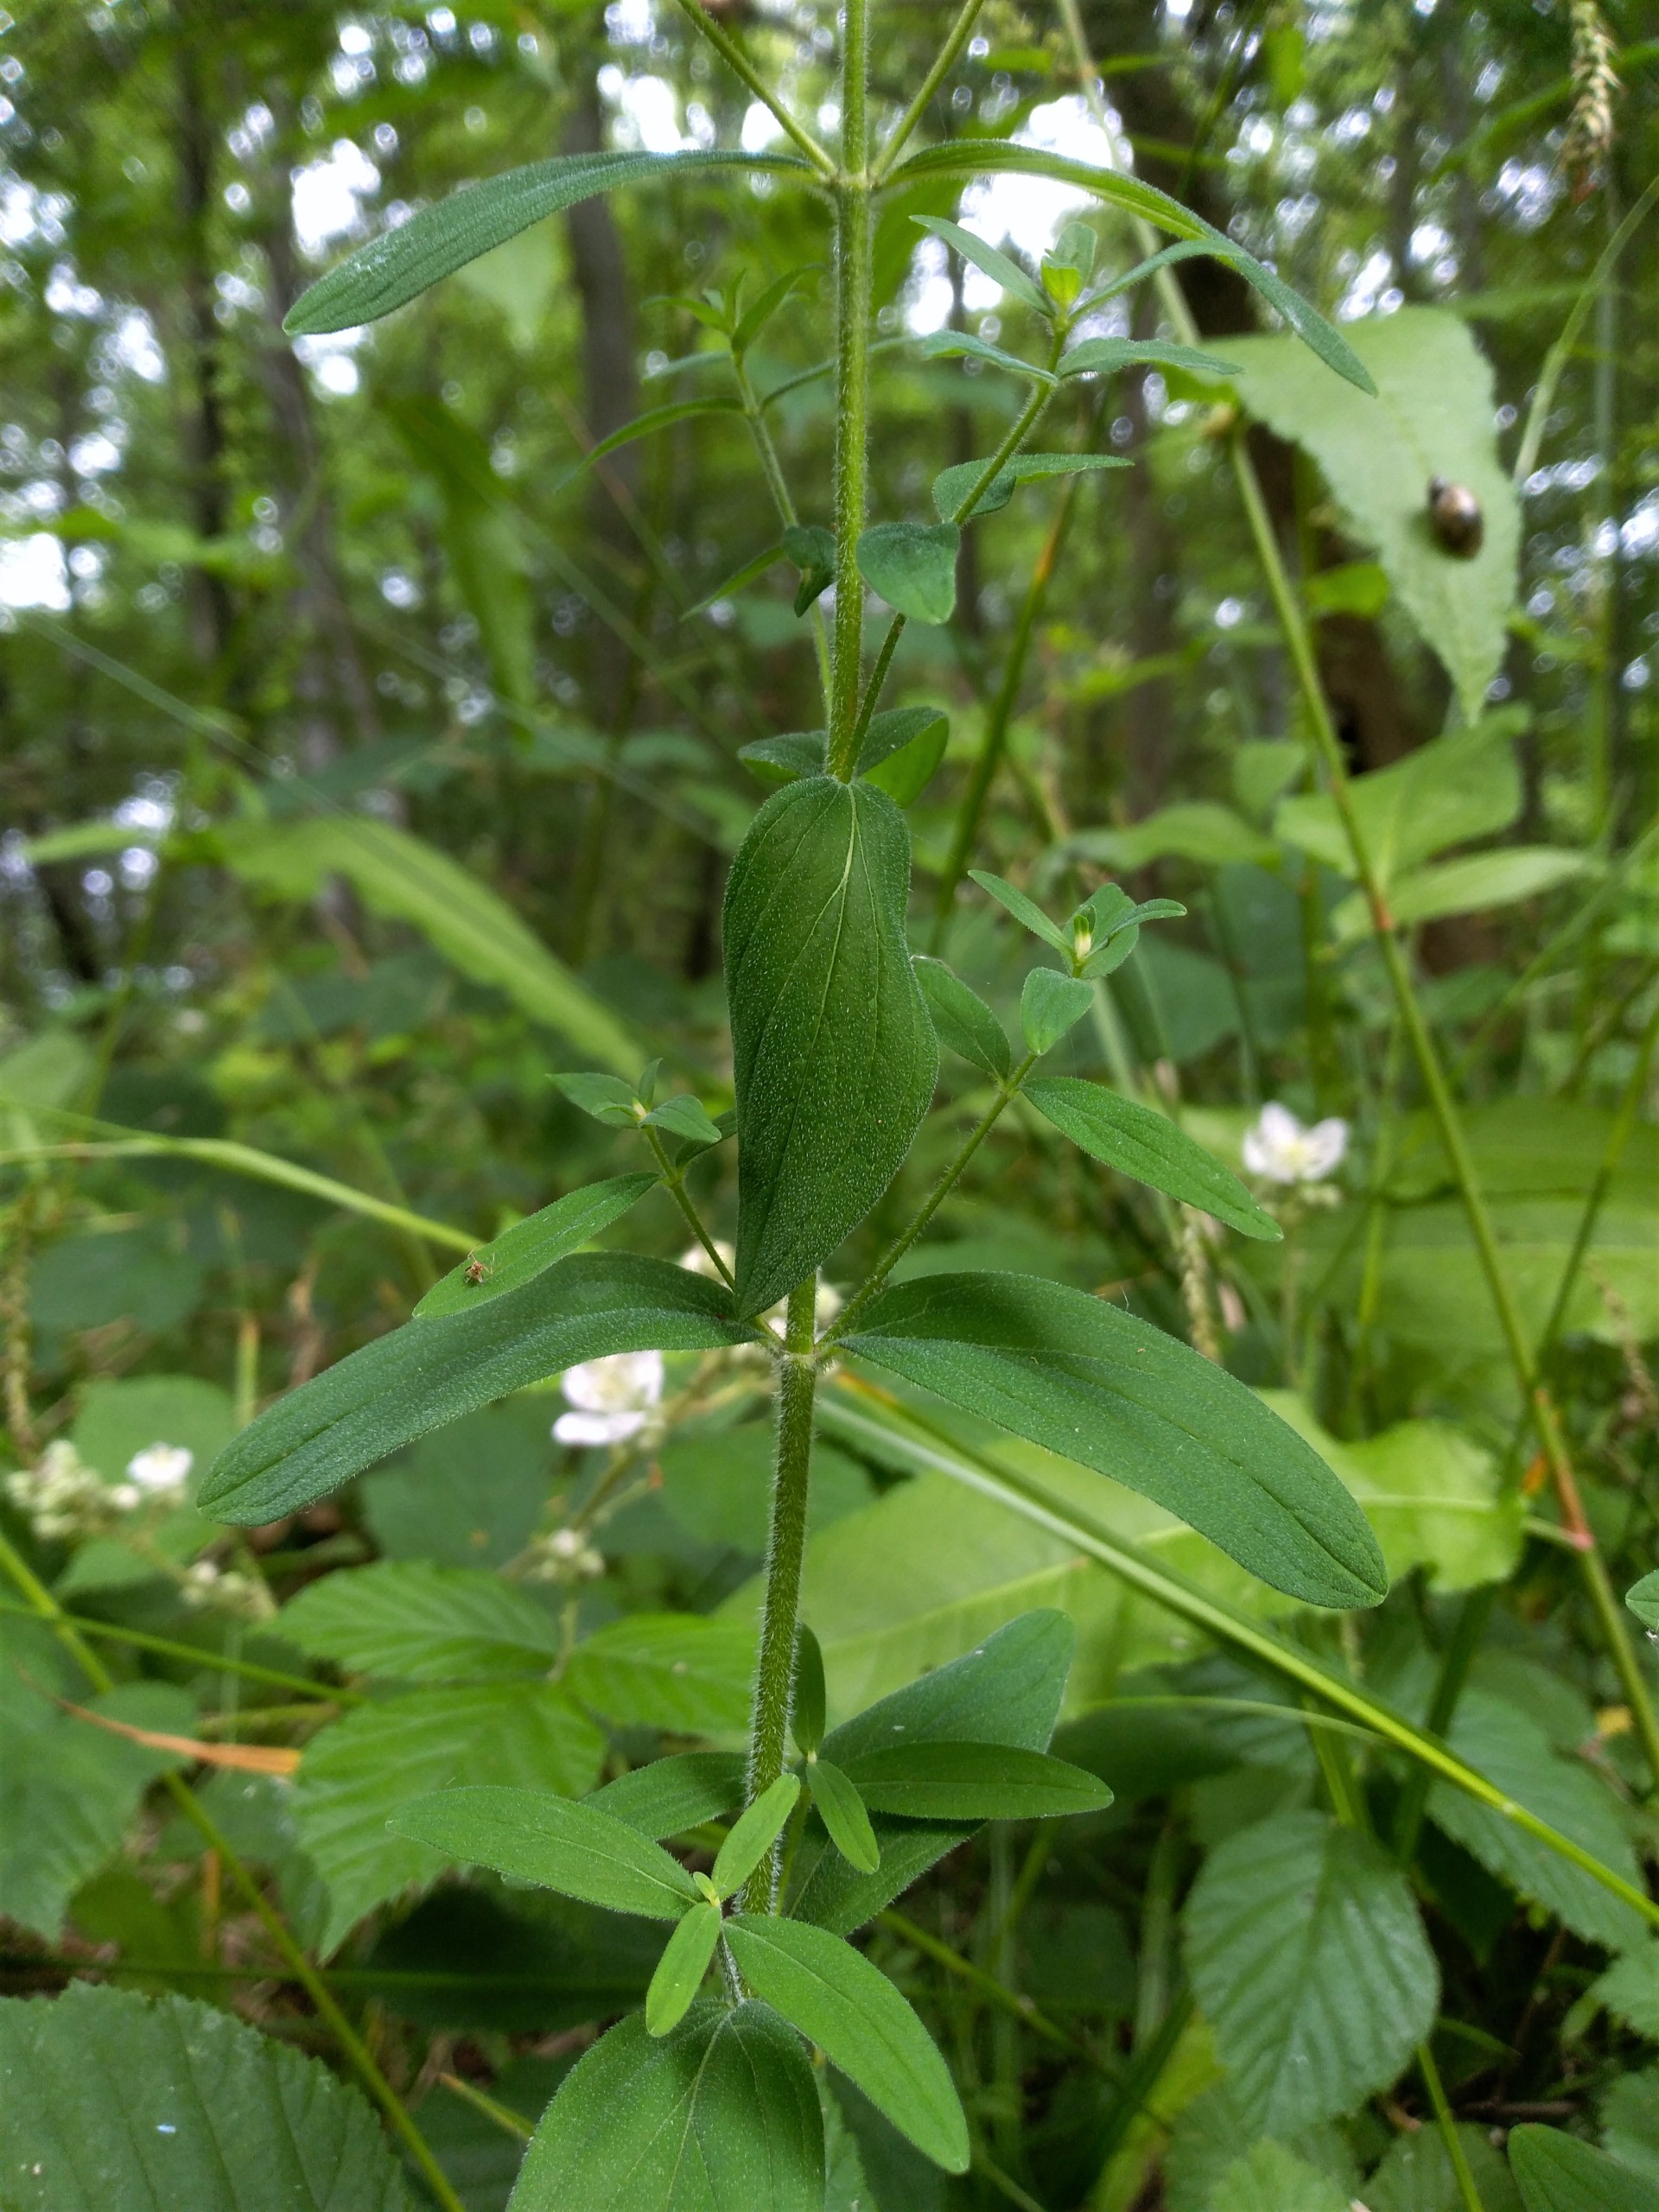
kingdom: Plantae
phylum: Tracheophyta
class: Magnoliopsida
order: Malpighiales
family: Hypericaceae
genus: Hypericum
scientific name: Hypericum hirsutum
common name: Lådden perikon
